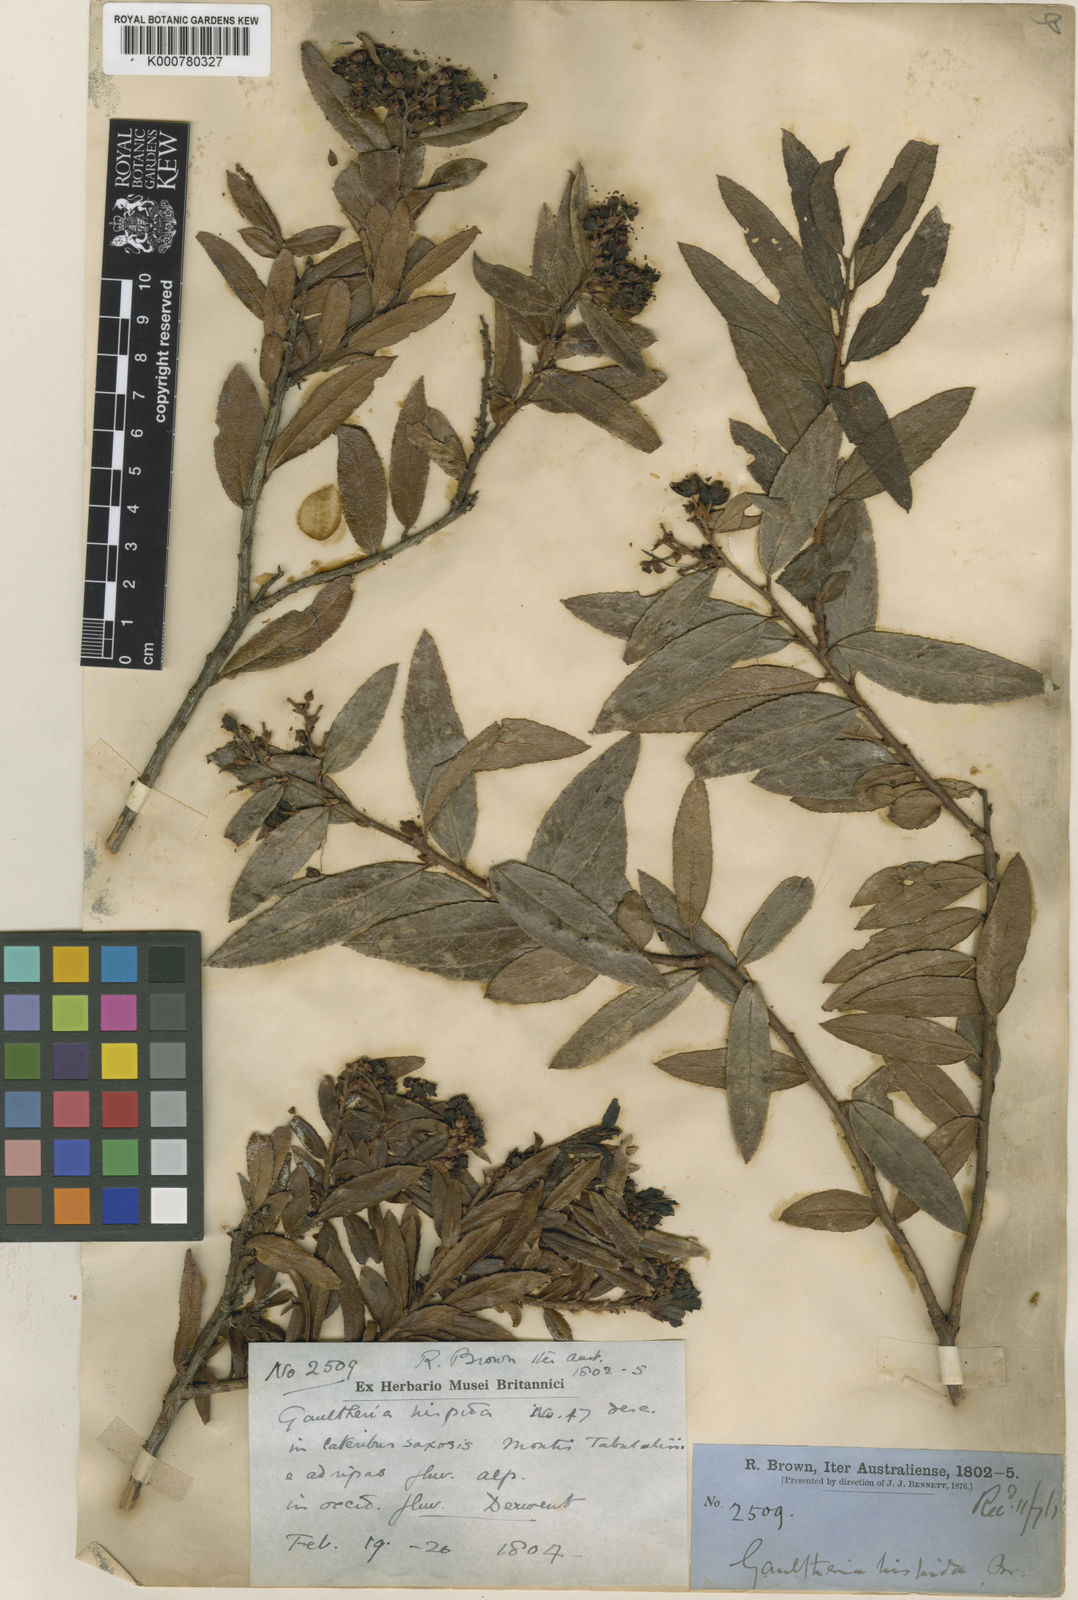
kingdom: Plantae
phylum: Tracheophyta
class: Magnoliopsida
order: Ericales
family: Ericaceae
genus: Gaultheria
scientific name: Gaultheria hispida
